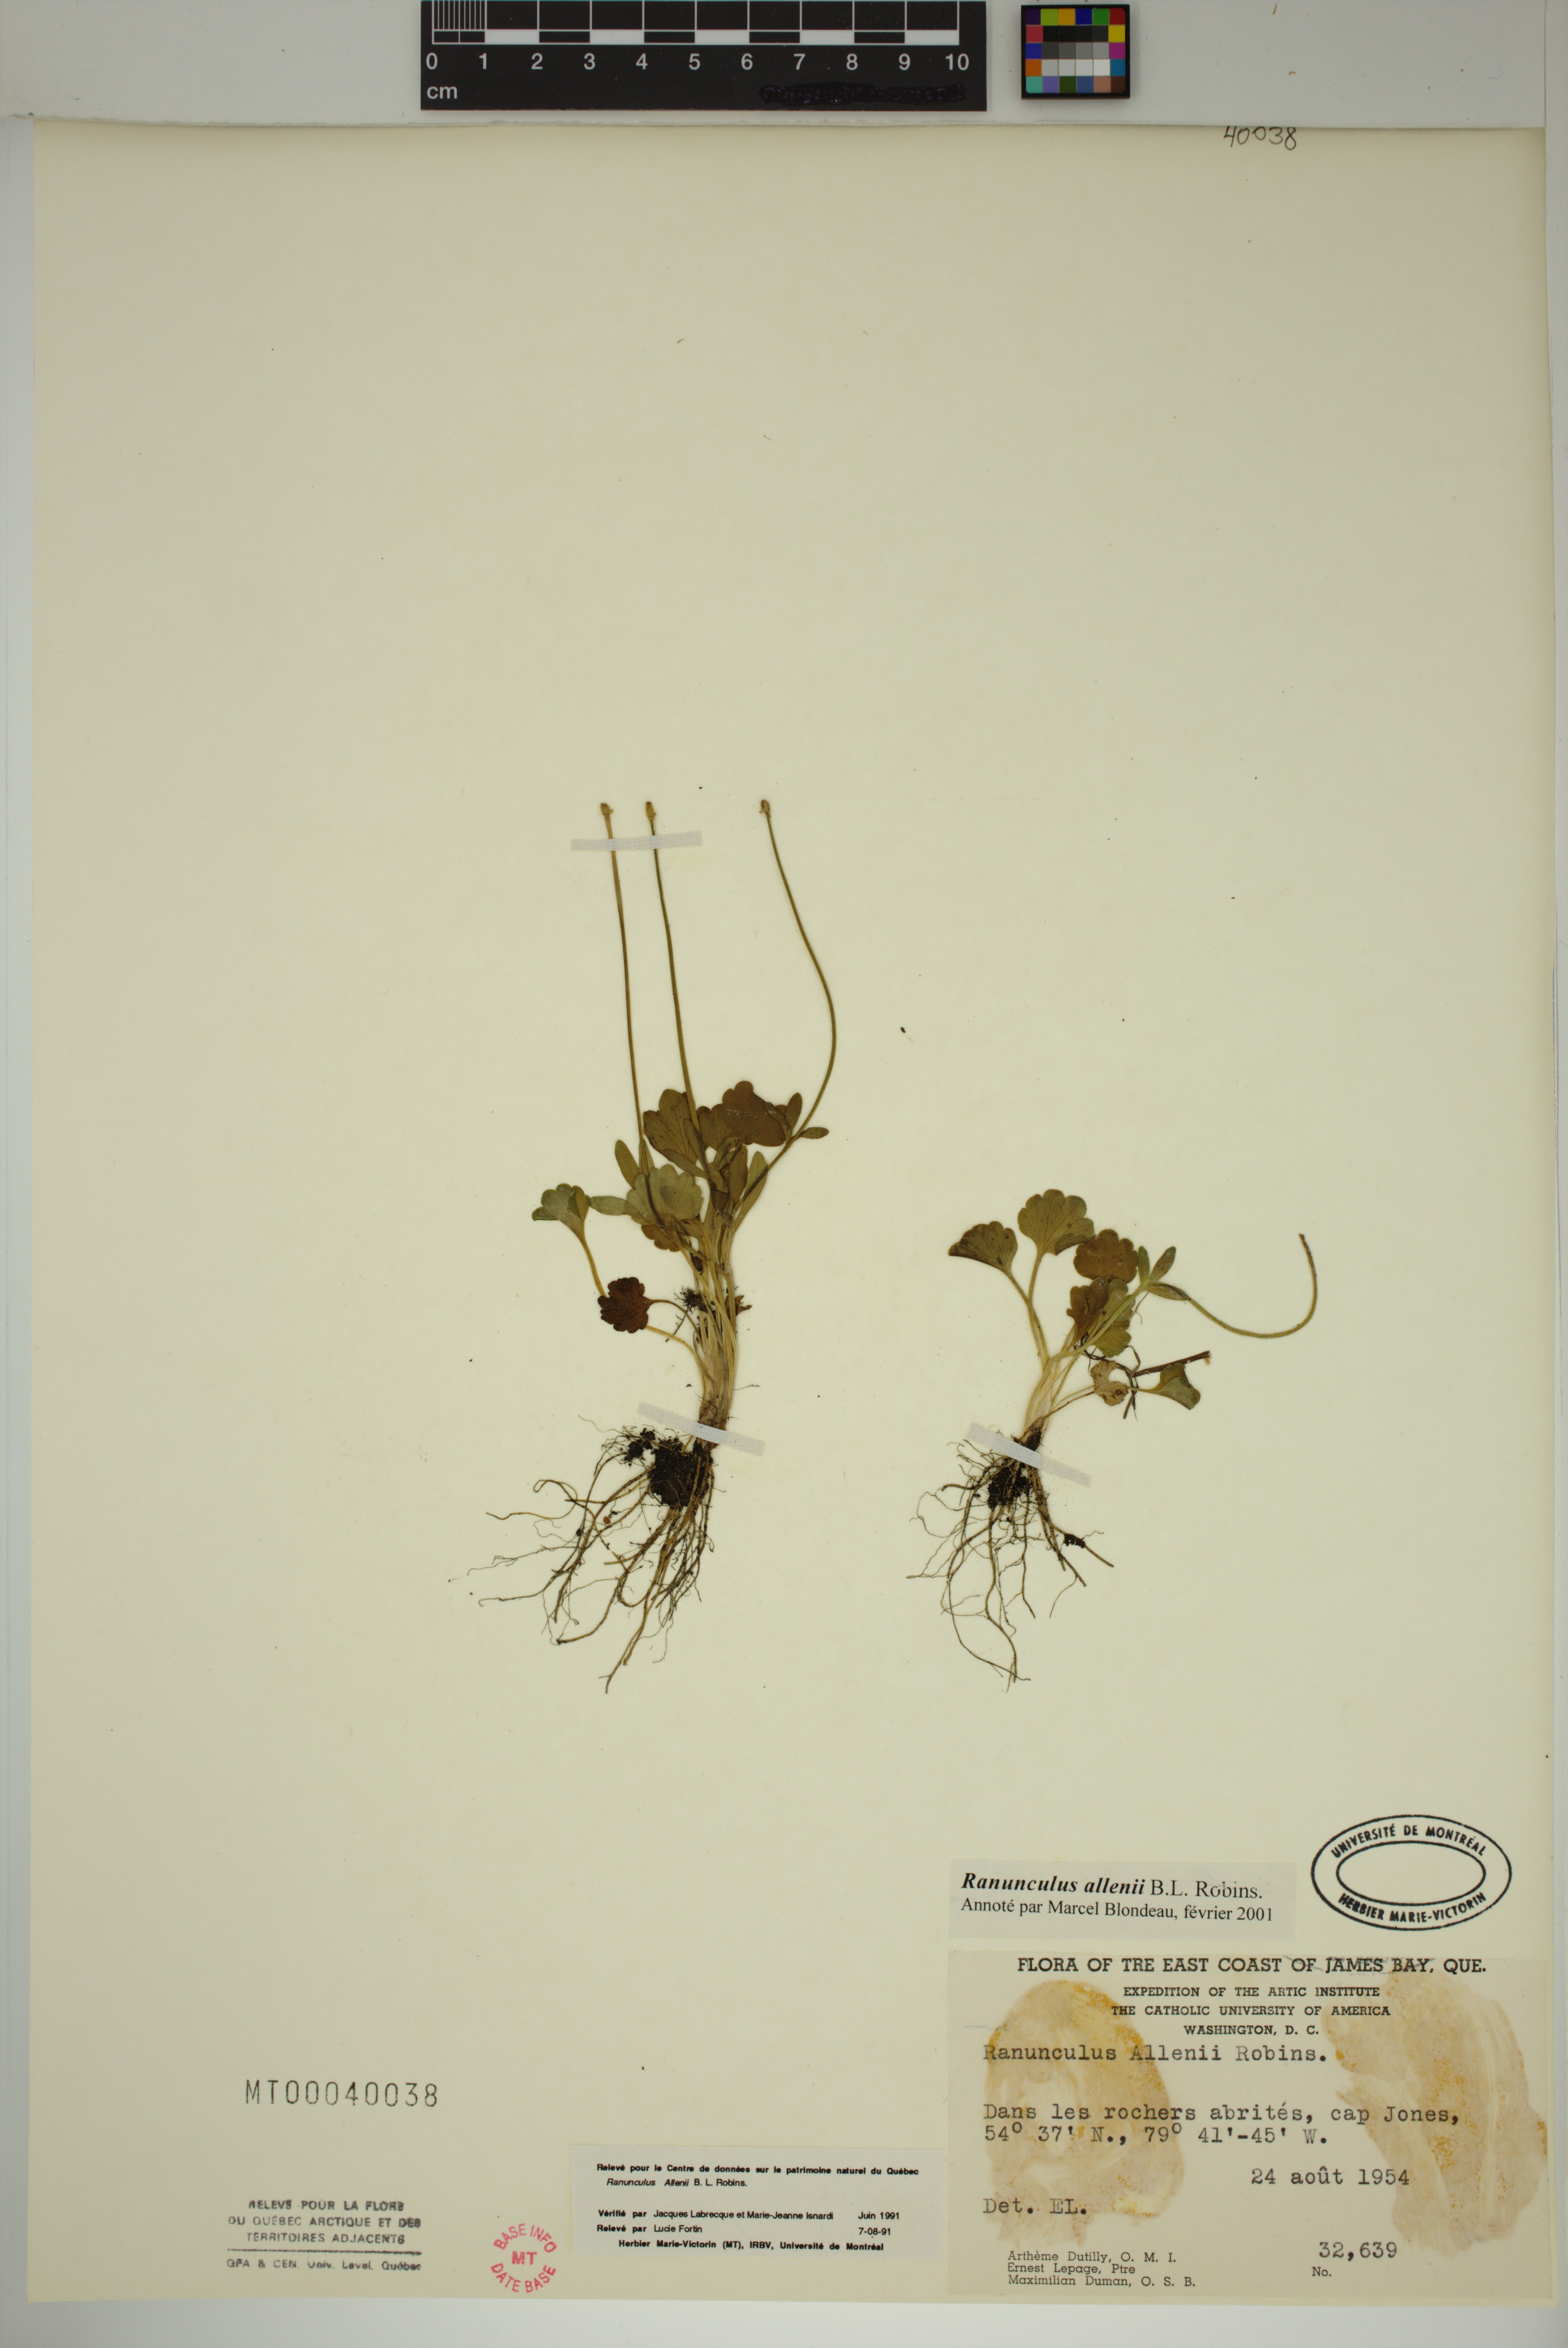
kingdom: Plantae
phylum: Tracheophyta
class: Magnoliopsida
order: Ranunculales
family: Ranunculaceae
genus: Ranunculus
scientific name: Ranunculus allenii
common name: Allen's buttercup
